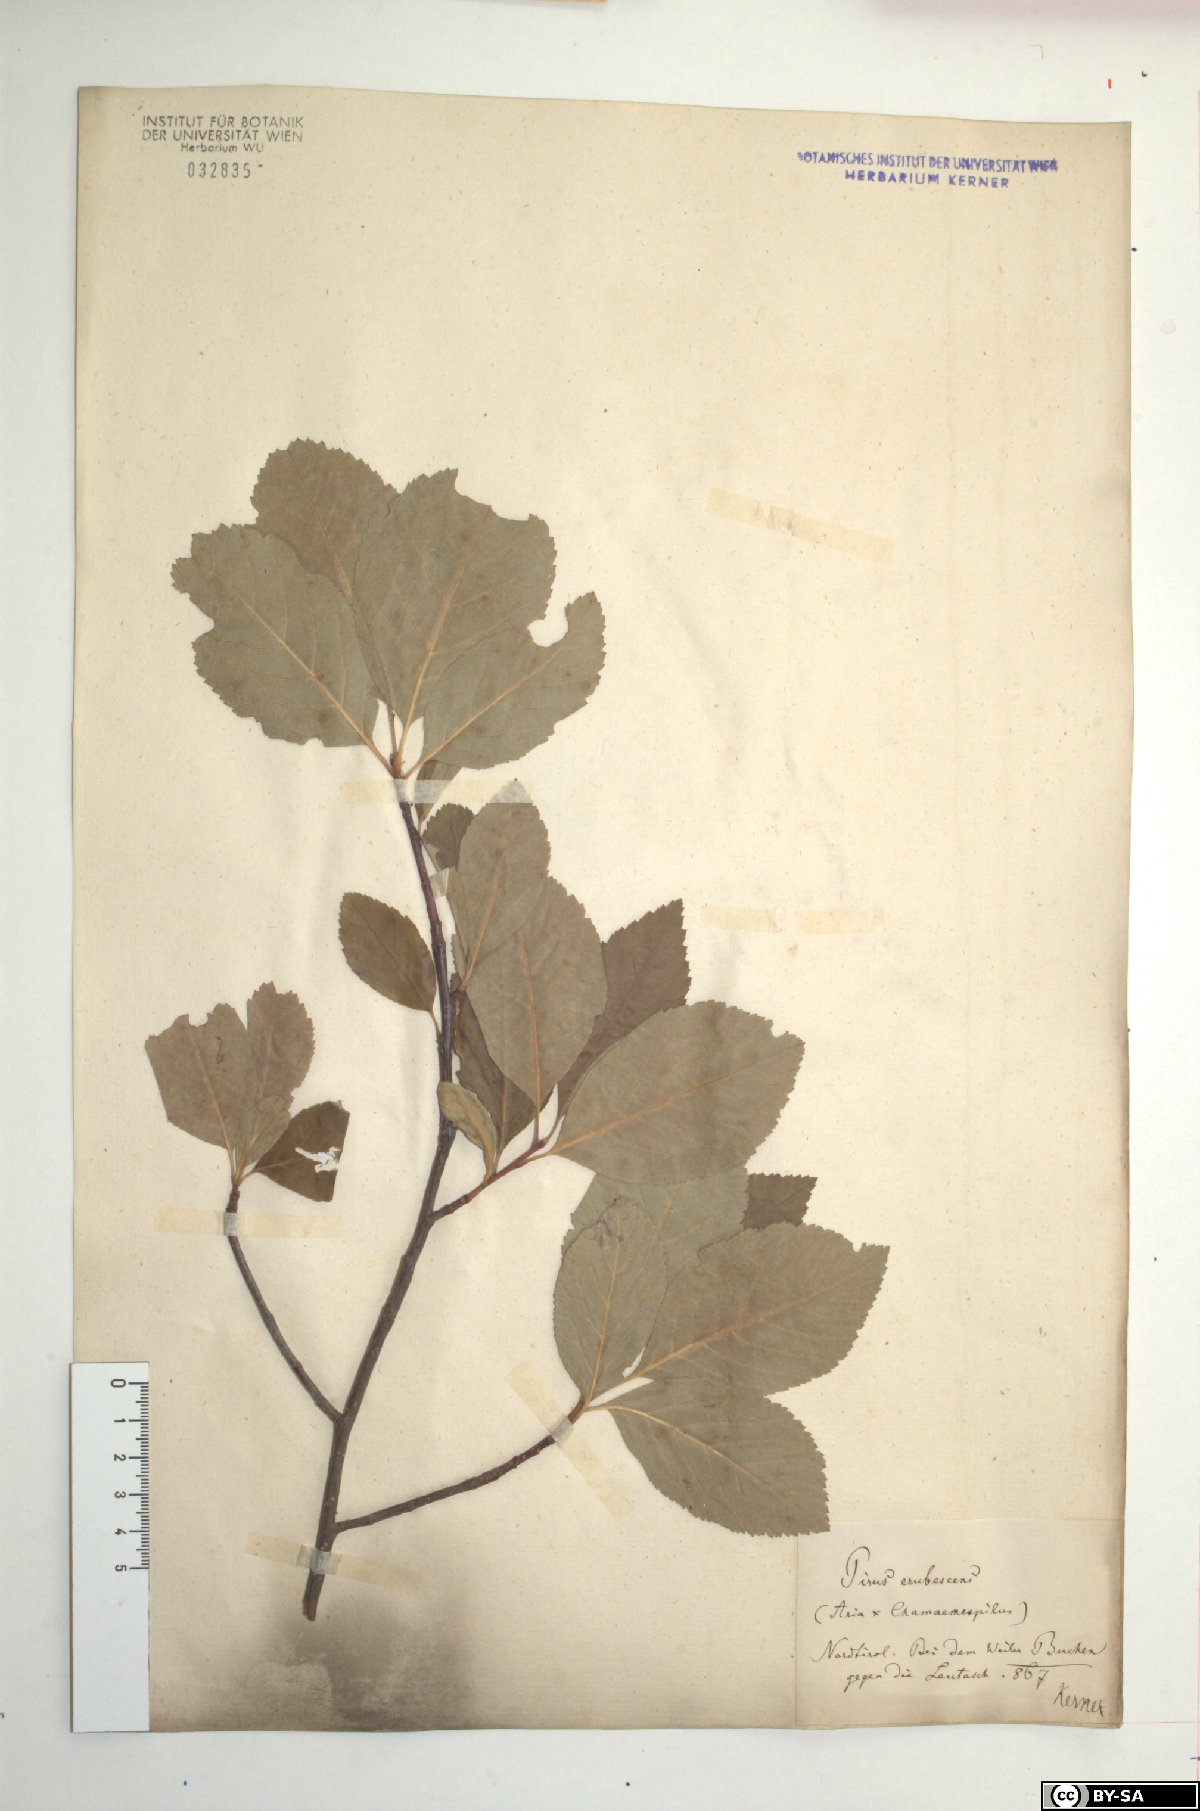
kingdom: Plantae
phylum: Tracheophyta
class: Magnoliopsida
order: Rosales
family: Rosaceae
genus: Majovskya
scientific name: Majovskya sudetica
